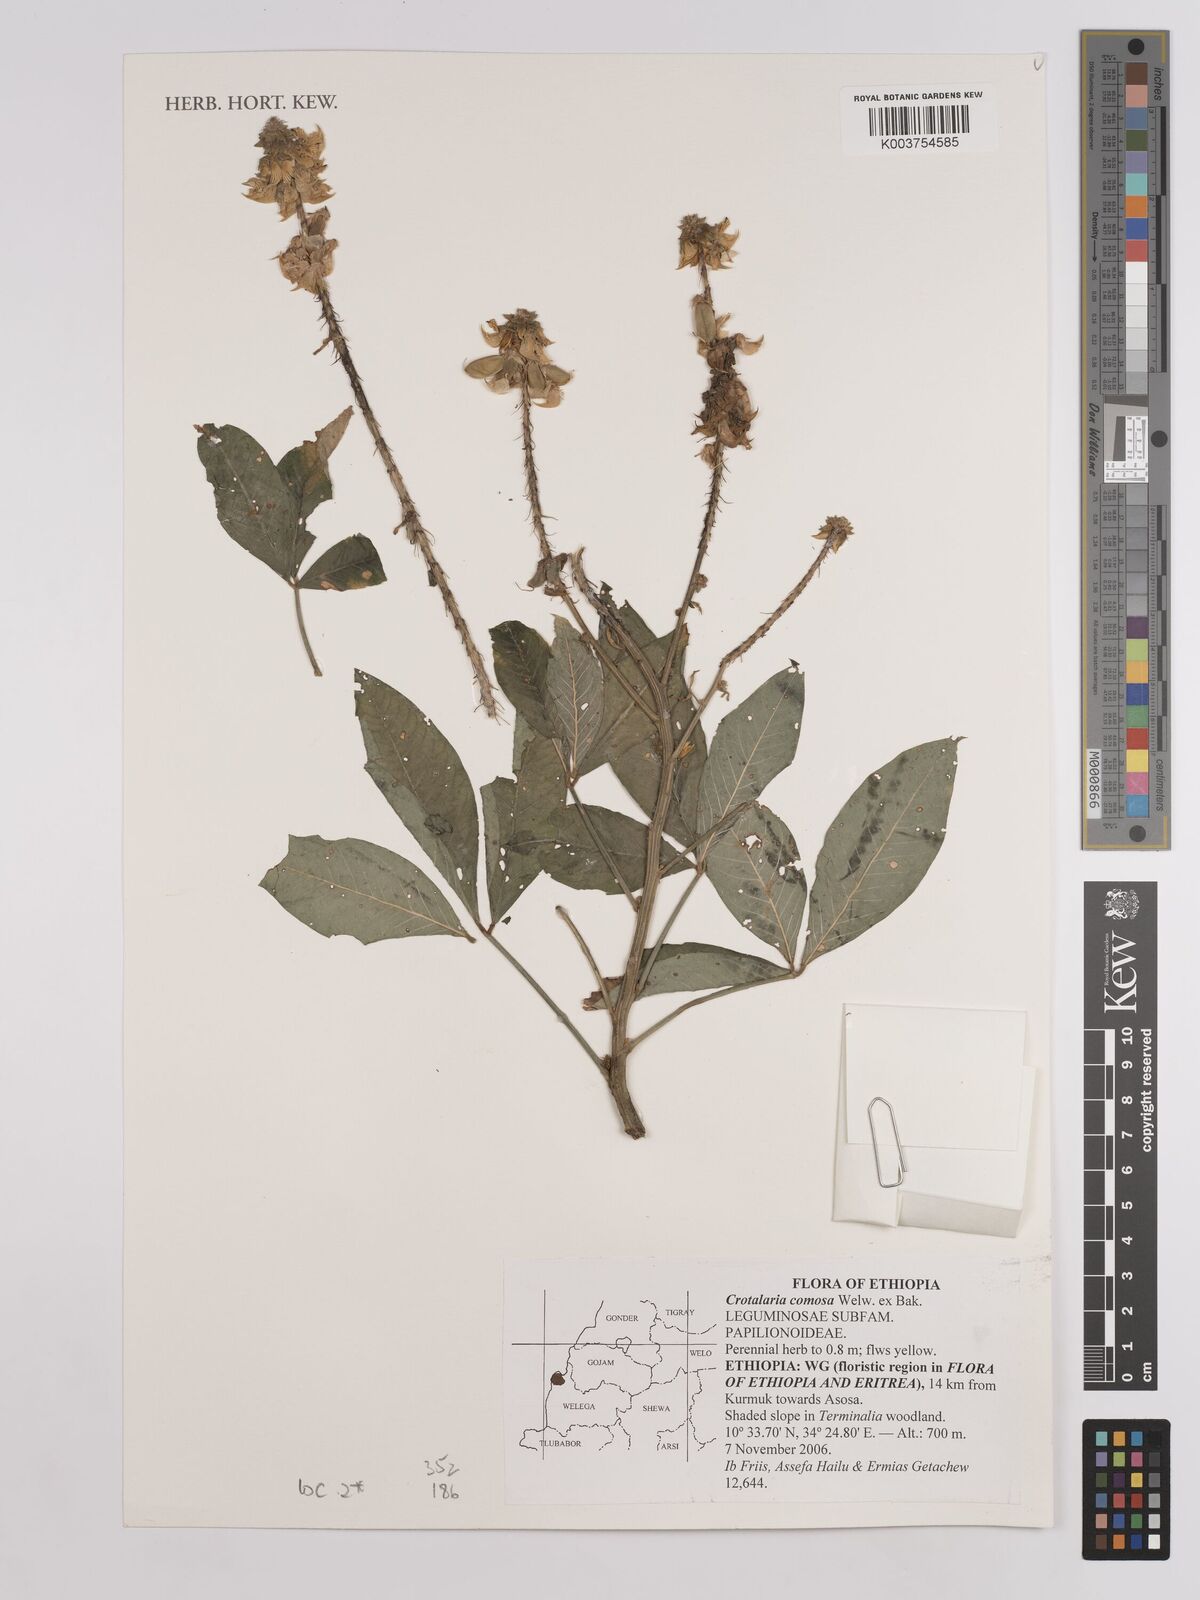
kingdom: Plantae
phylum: Tracheophyta
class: Magnoliopsida
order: Fabales
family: Fabaceae
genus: Crotalaria
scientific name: Crotalaria comosa
